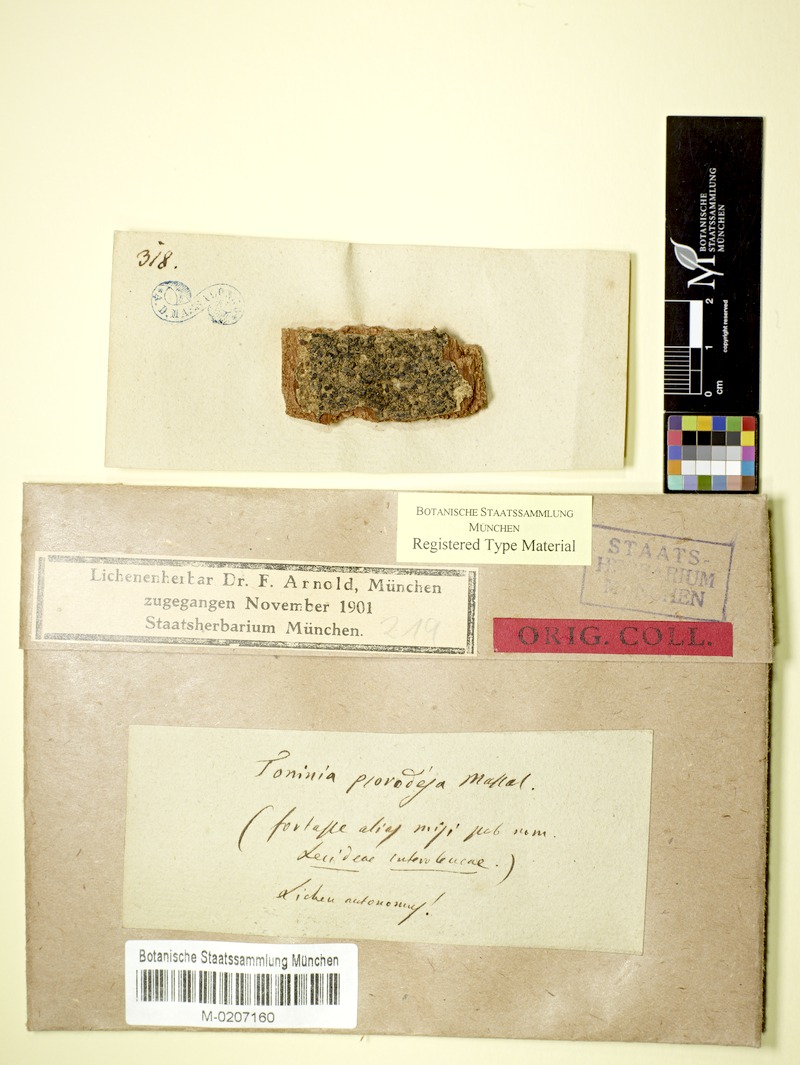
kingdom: Fungi
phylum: Ascomycota
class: Lecanoromycetes
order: Lecanorales
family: Ramalinaceae
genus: Toninia
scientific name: Toninia
